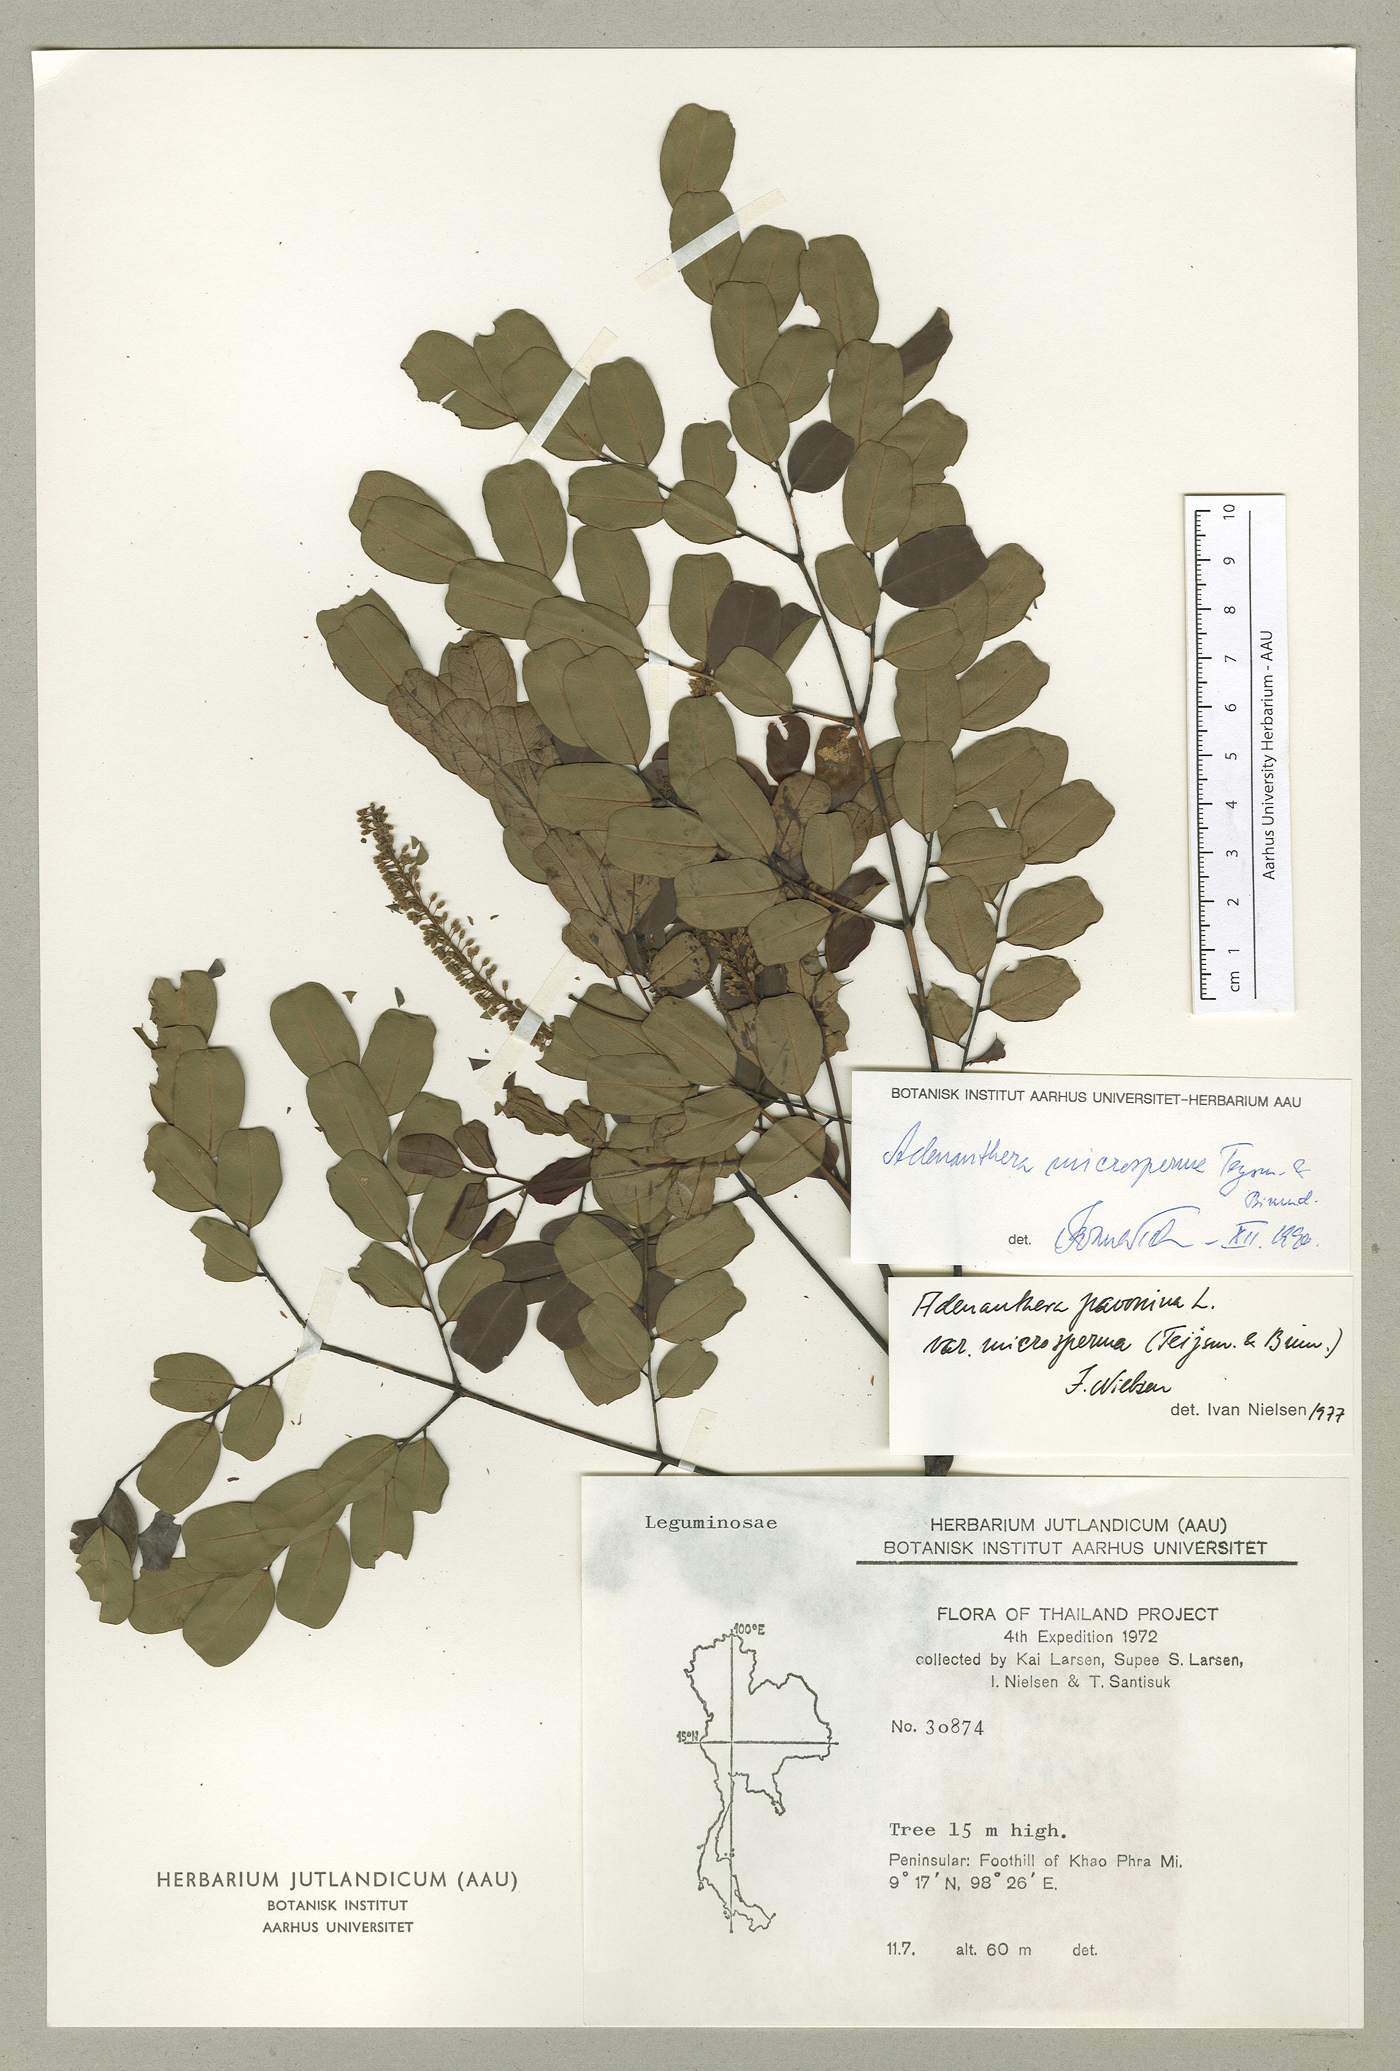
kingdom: Plantae
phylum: Tracheophyta
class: Magnoliopsida
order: Fabales
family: Fabaceae
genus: Adenanthera
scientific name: Adenanthera microsperma
